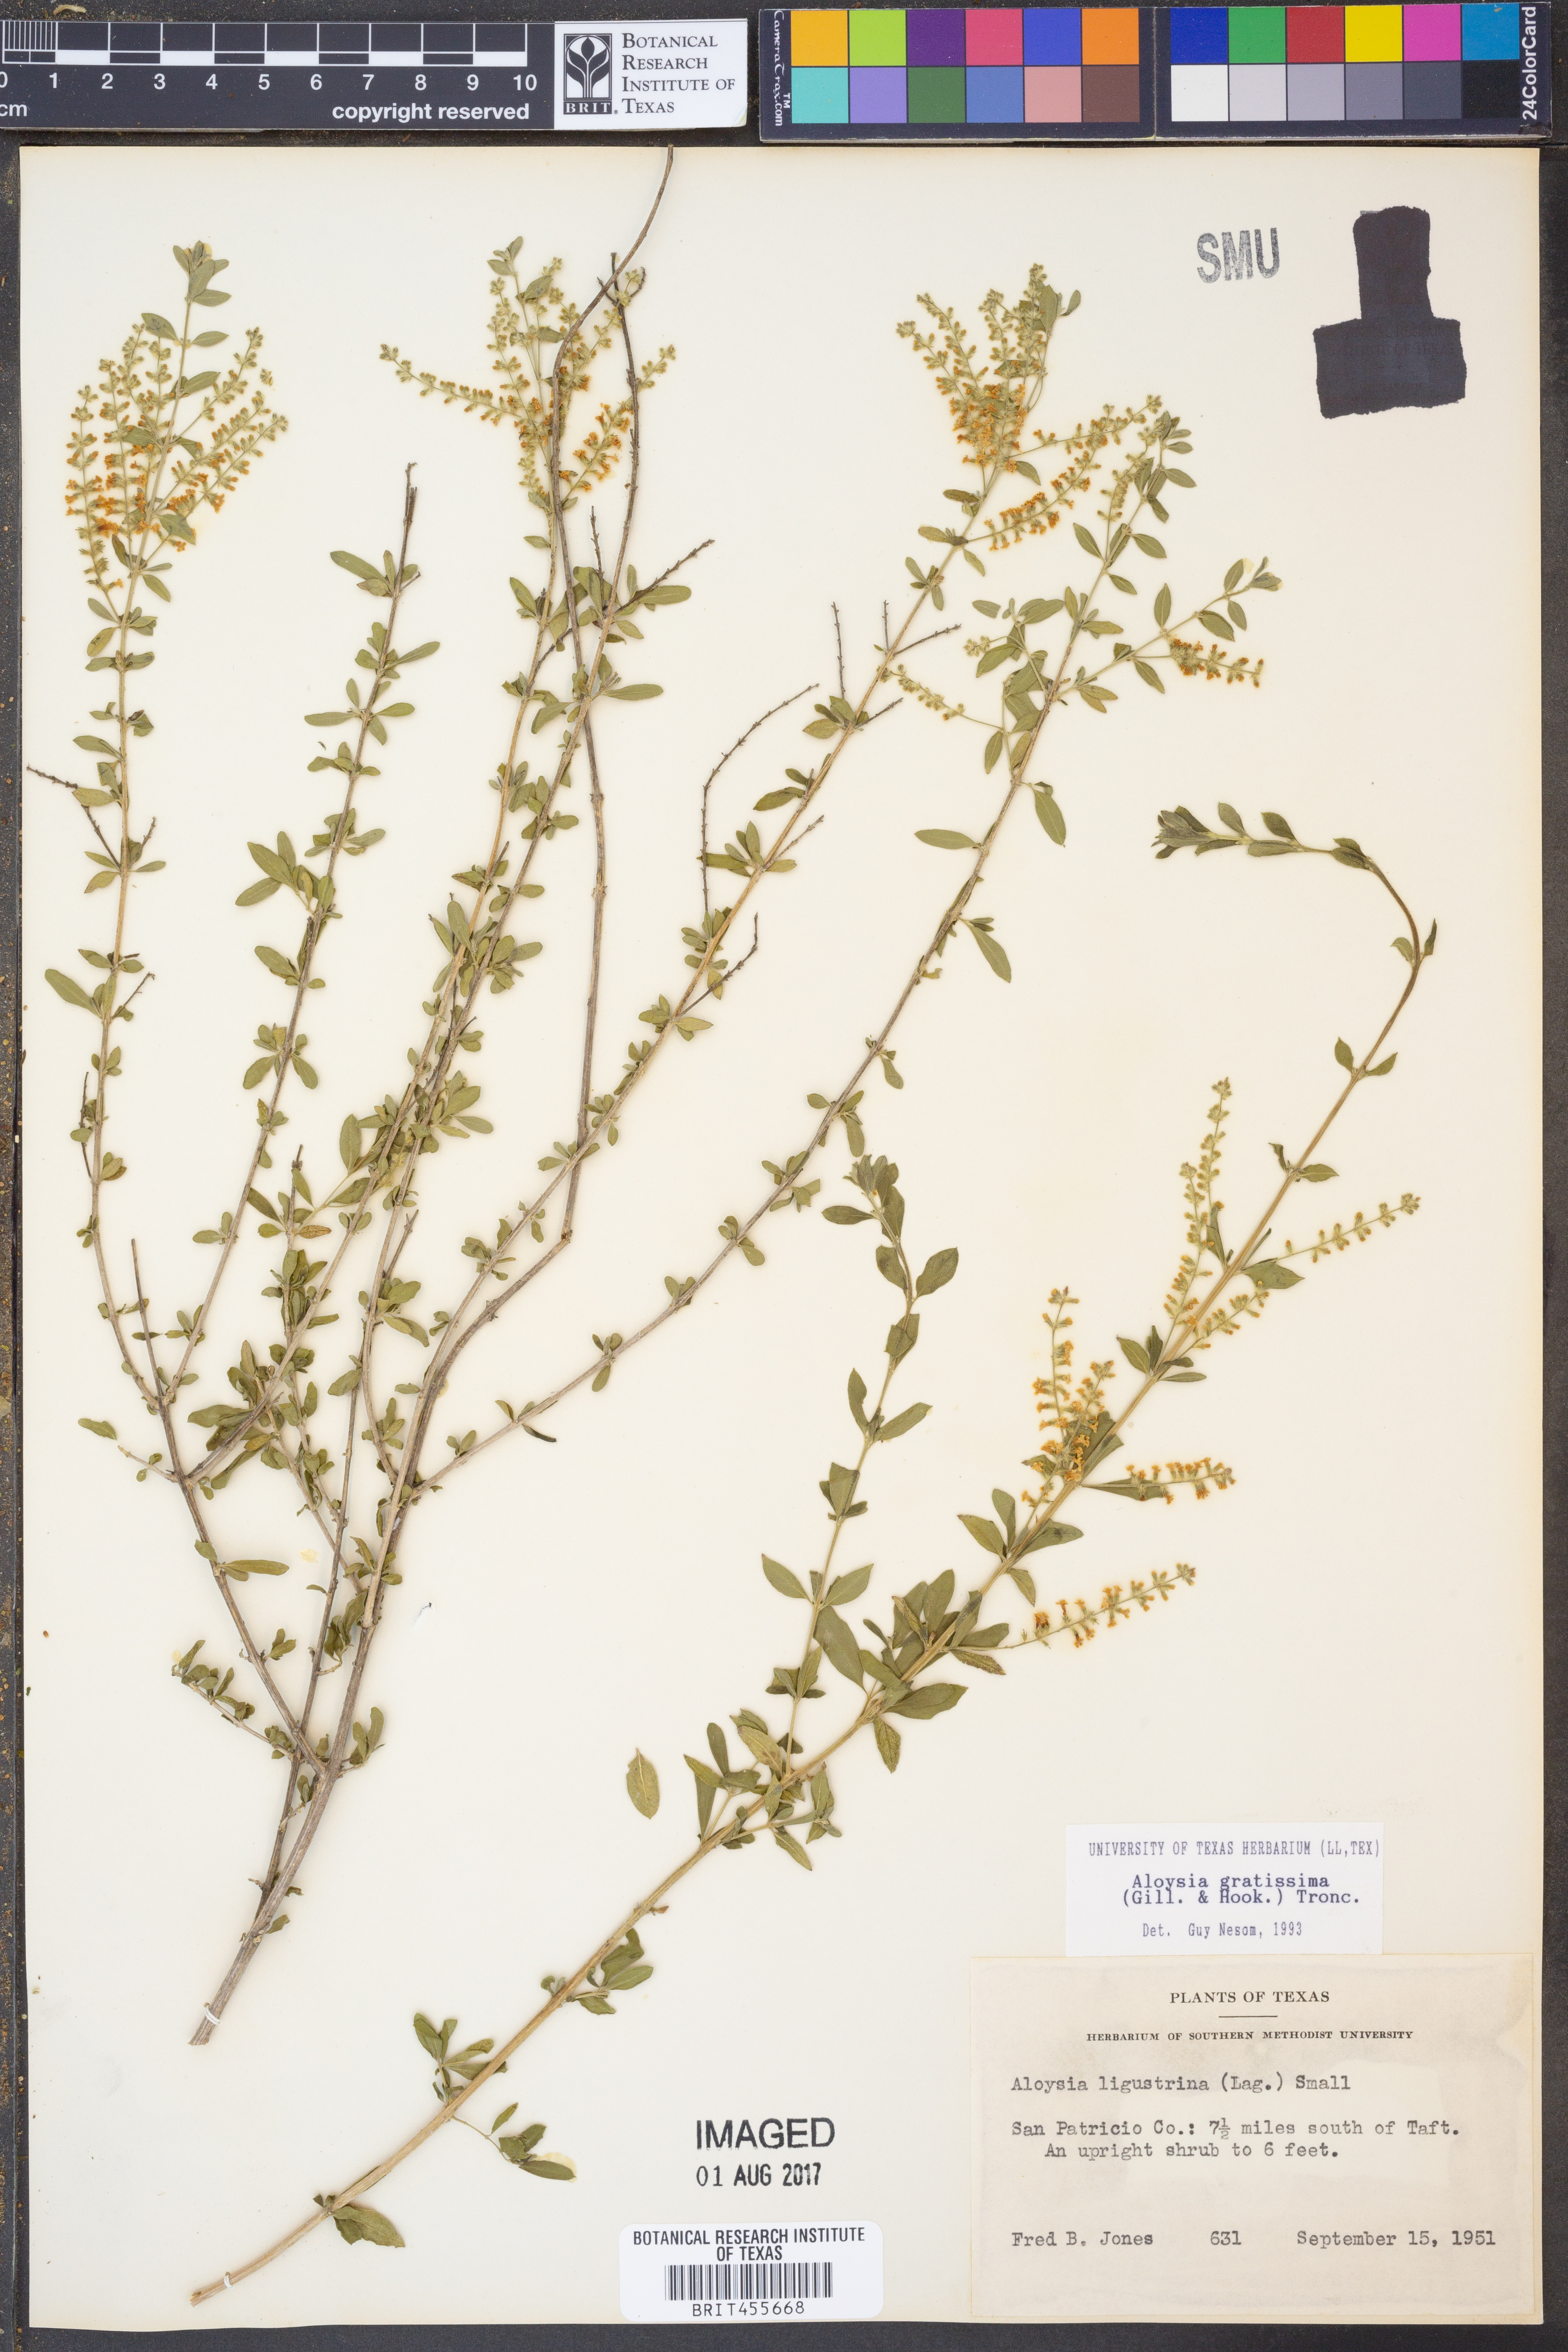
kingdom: Plantae
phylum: Tracheophyta
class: Magnoliopsida
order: Lamiales
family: Verbenaceae
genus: Aloysia
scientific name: Aloysia gratissima
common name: Common bee-brush
